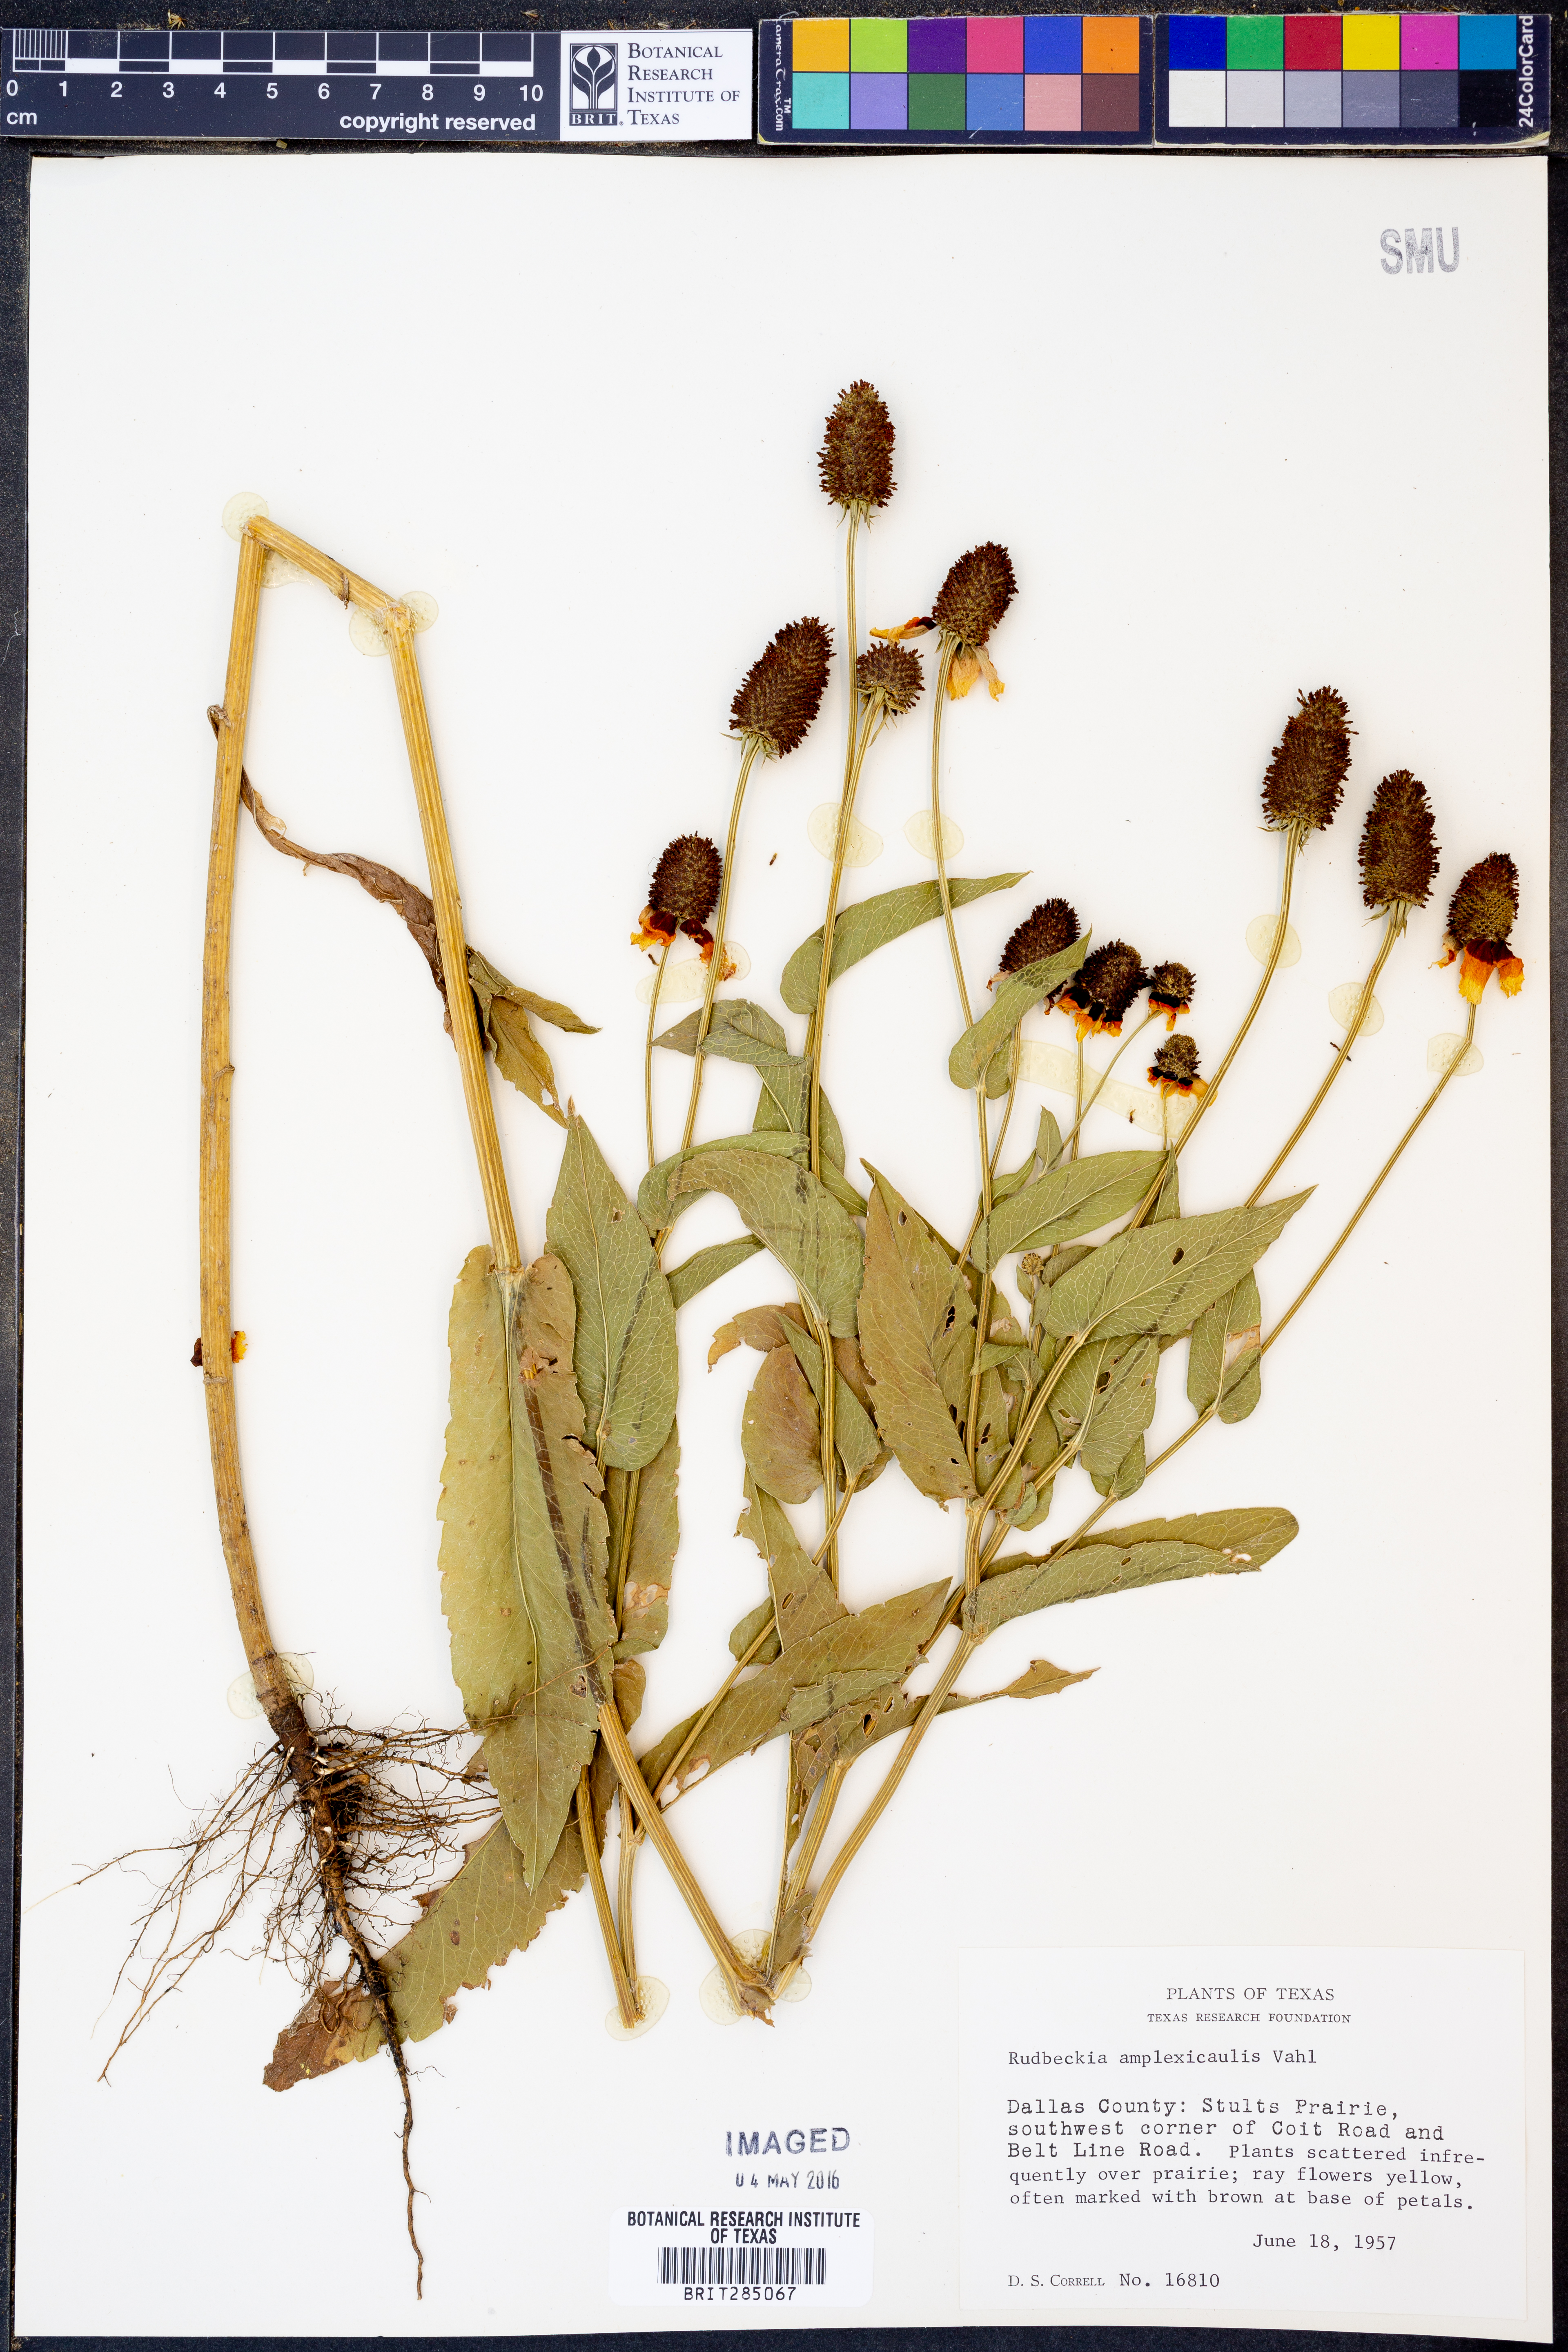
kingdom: Plantae
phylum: Tracheophyta
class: Magnoliopsida
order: Asterales
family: Asteraceae
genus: Rudbeckia
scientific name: Rudbeckia amplexicaulis
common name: Clasping-leaf coneflower
